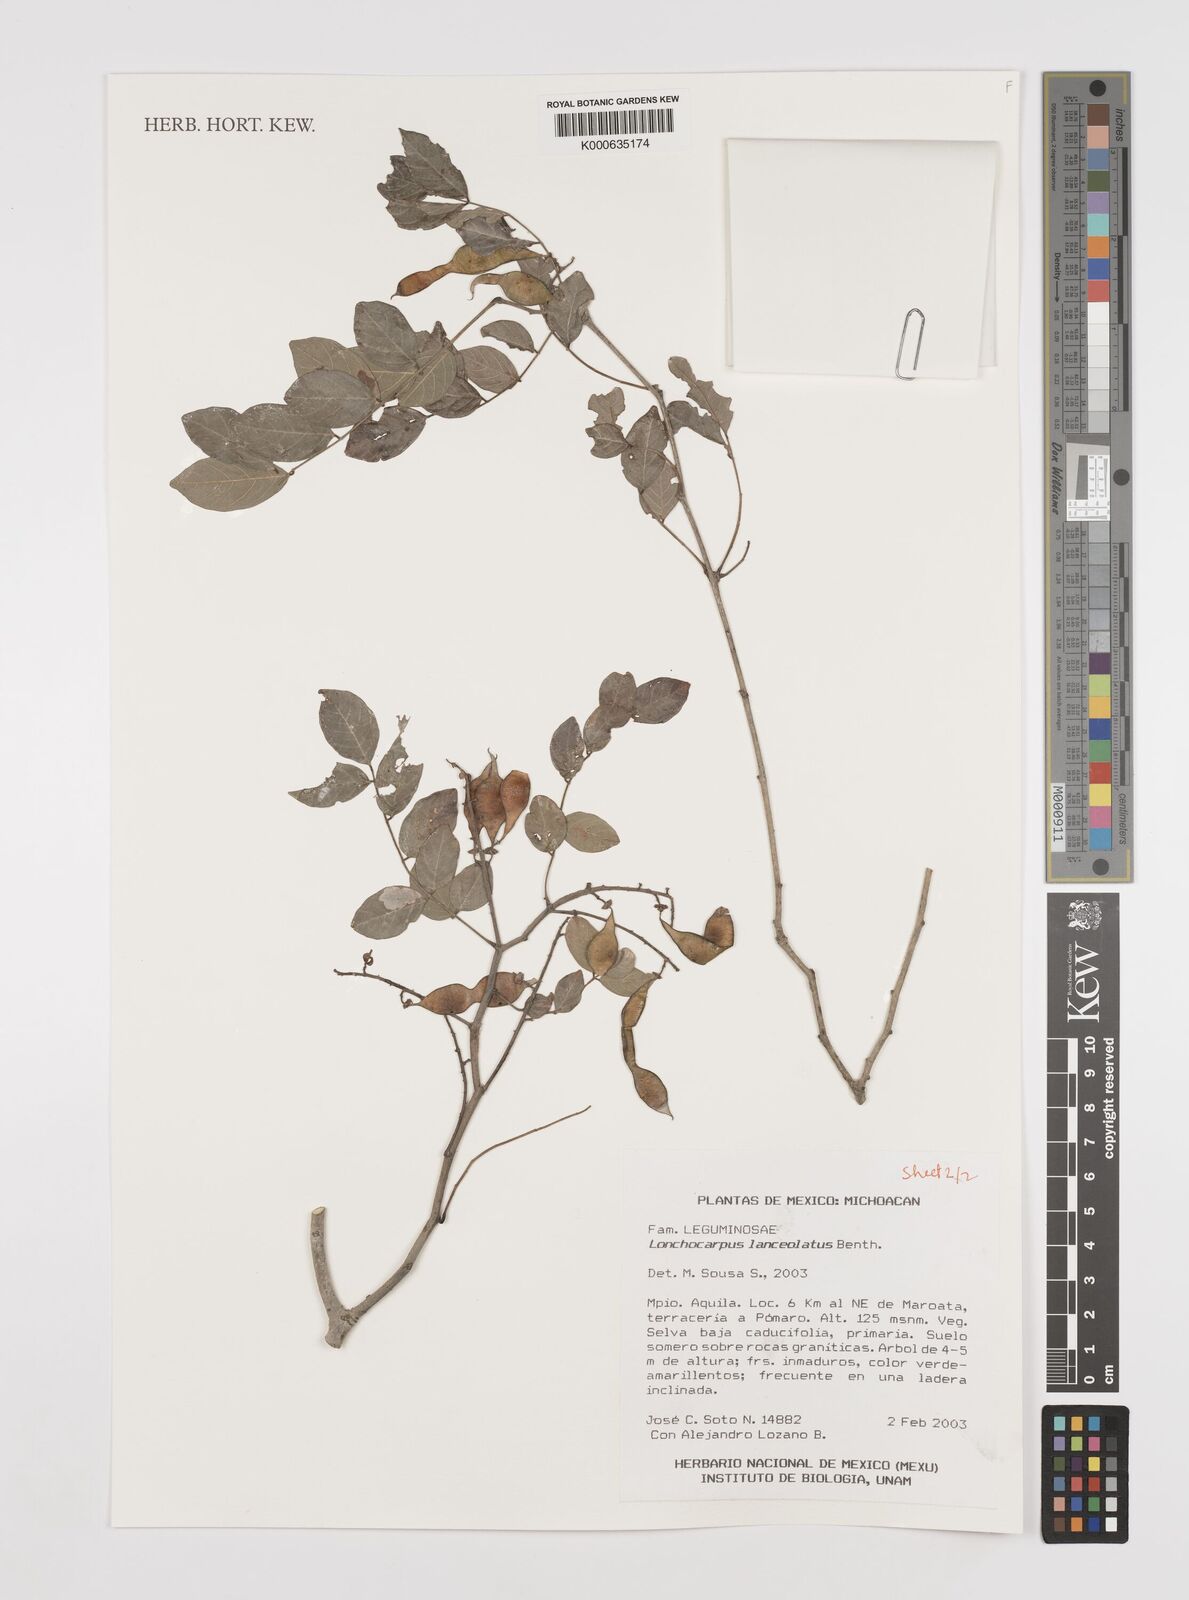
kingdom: Plantae
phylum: Tracheophyta
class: Magnoliopsida
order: Fabales
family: Fabaceae
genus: Lonchocarpus
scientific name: Lonchocarpus lanceolatus
